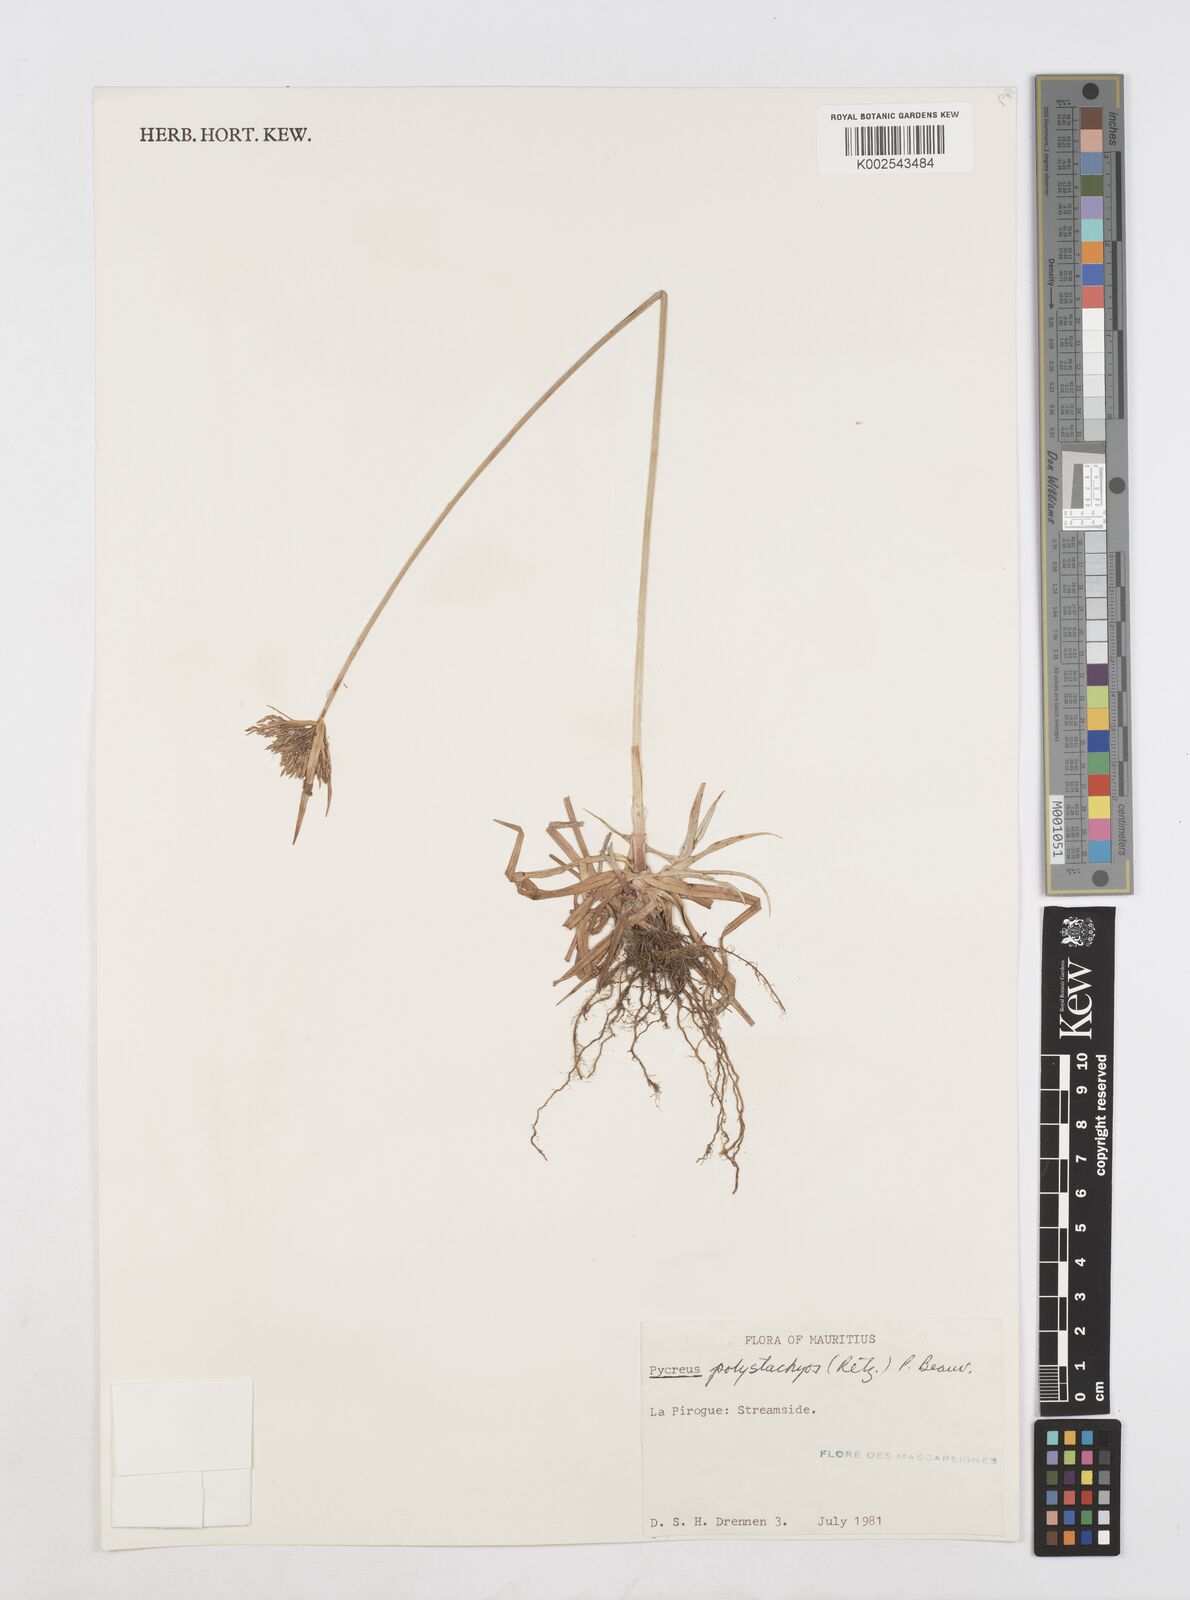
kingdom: Plantae
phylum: Tracheophyta
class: Liliopsida
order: Poales
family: Cyperaceae
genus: Cyperus
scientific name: Cyperus polystachyos
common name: Bunchy flat sedge
